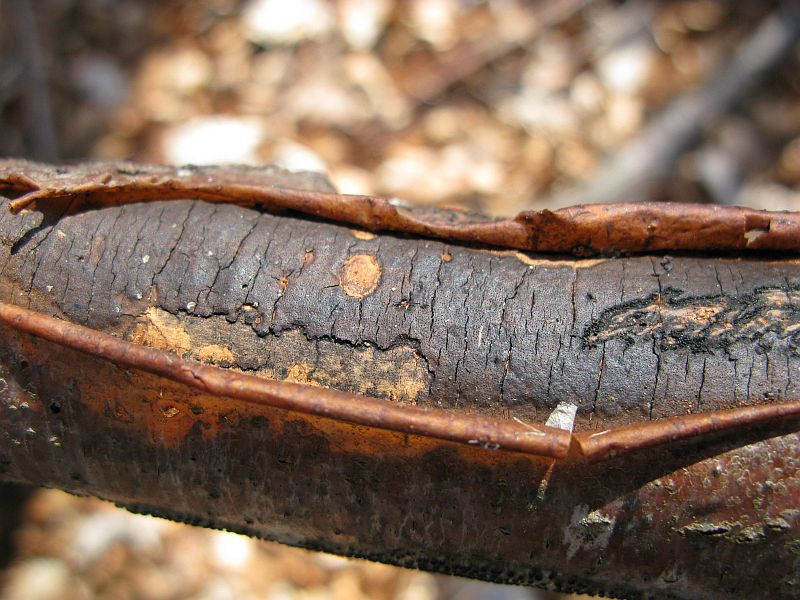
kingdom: Fungi
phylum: Ascomycota
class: Sordariomycetes
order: Xylariales
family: Diatrypaceae
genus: Diatrype
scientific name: Diatrype decorticata
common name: barksprænger-kulskorpe
